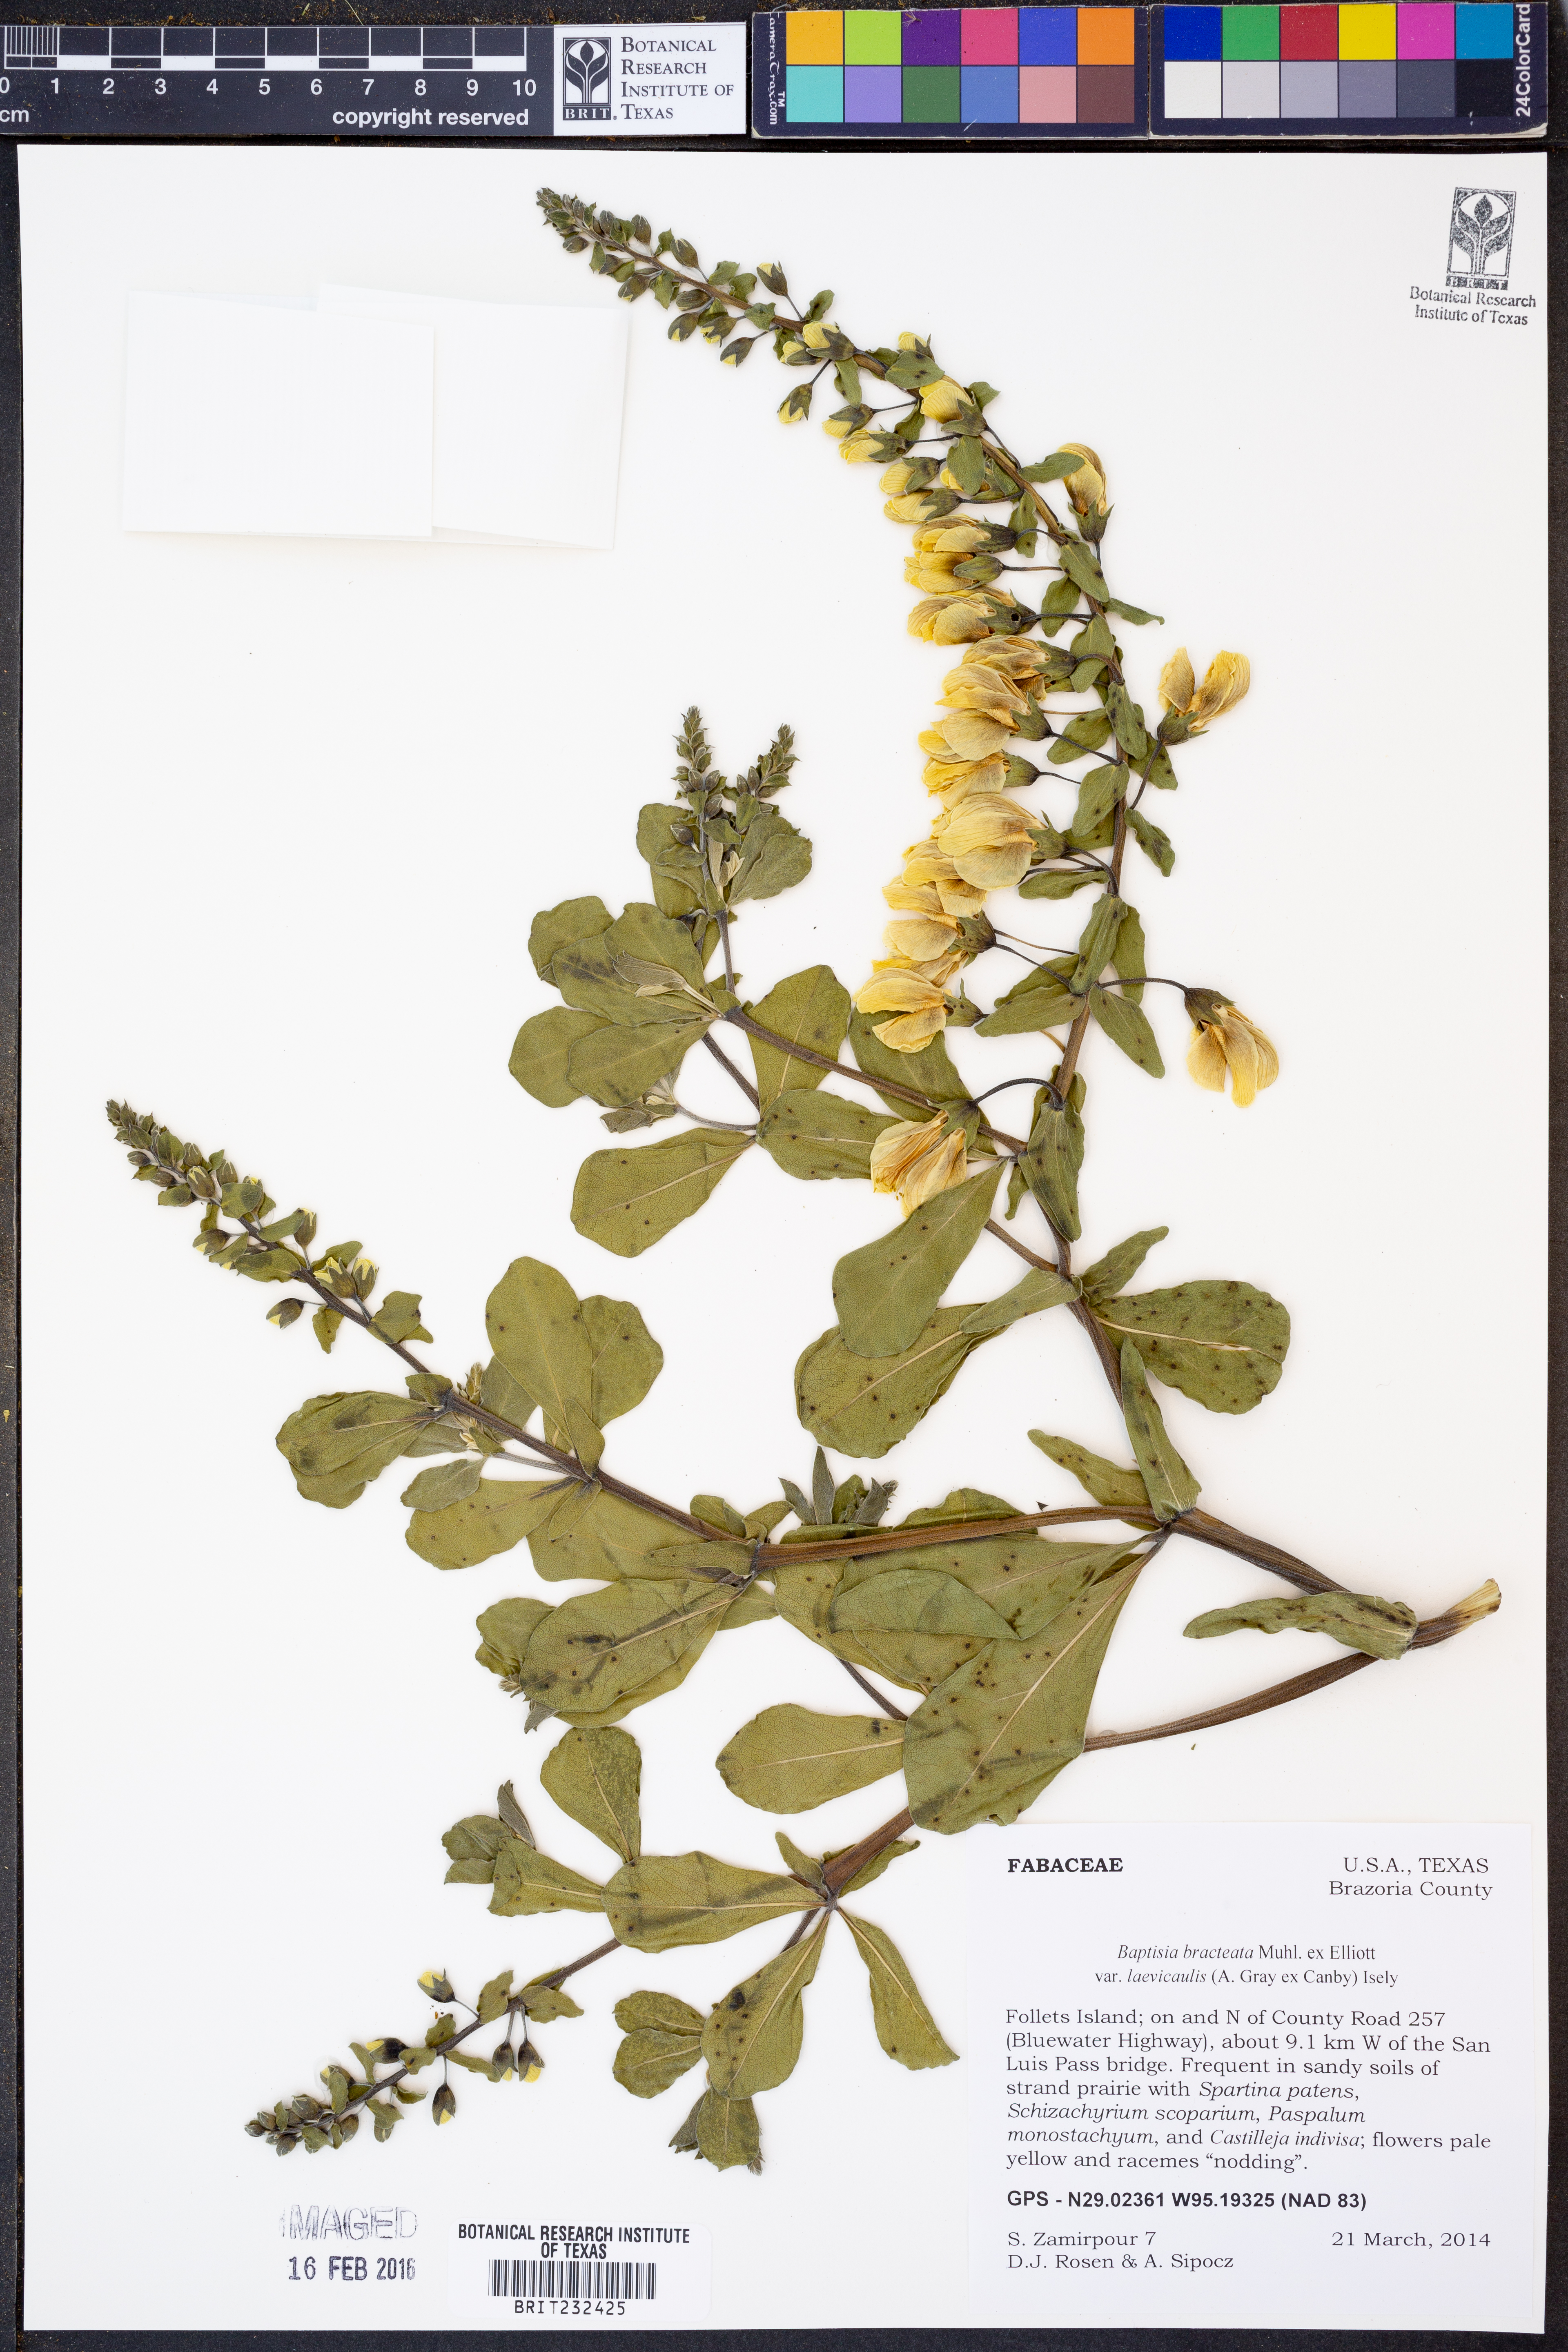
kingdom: Plantae
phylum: Tracheophyta
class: Magnoliopsida
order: Fabales
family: Fabaceae
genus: Baptisia
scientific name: Baptisia bracteata
